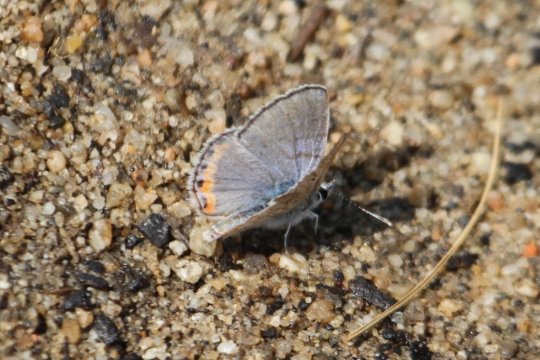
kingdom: Animalia
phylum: Arthropoda
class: Insecta
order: Lepidoptera
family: Lycaenidae
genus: Plebejus
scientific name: Plebejus acmon
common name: Acmon Blue
